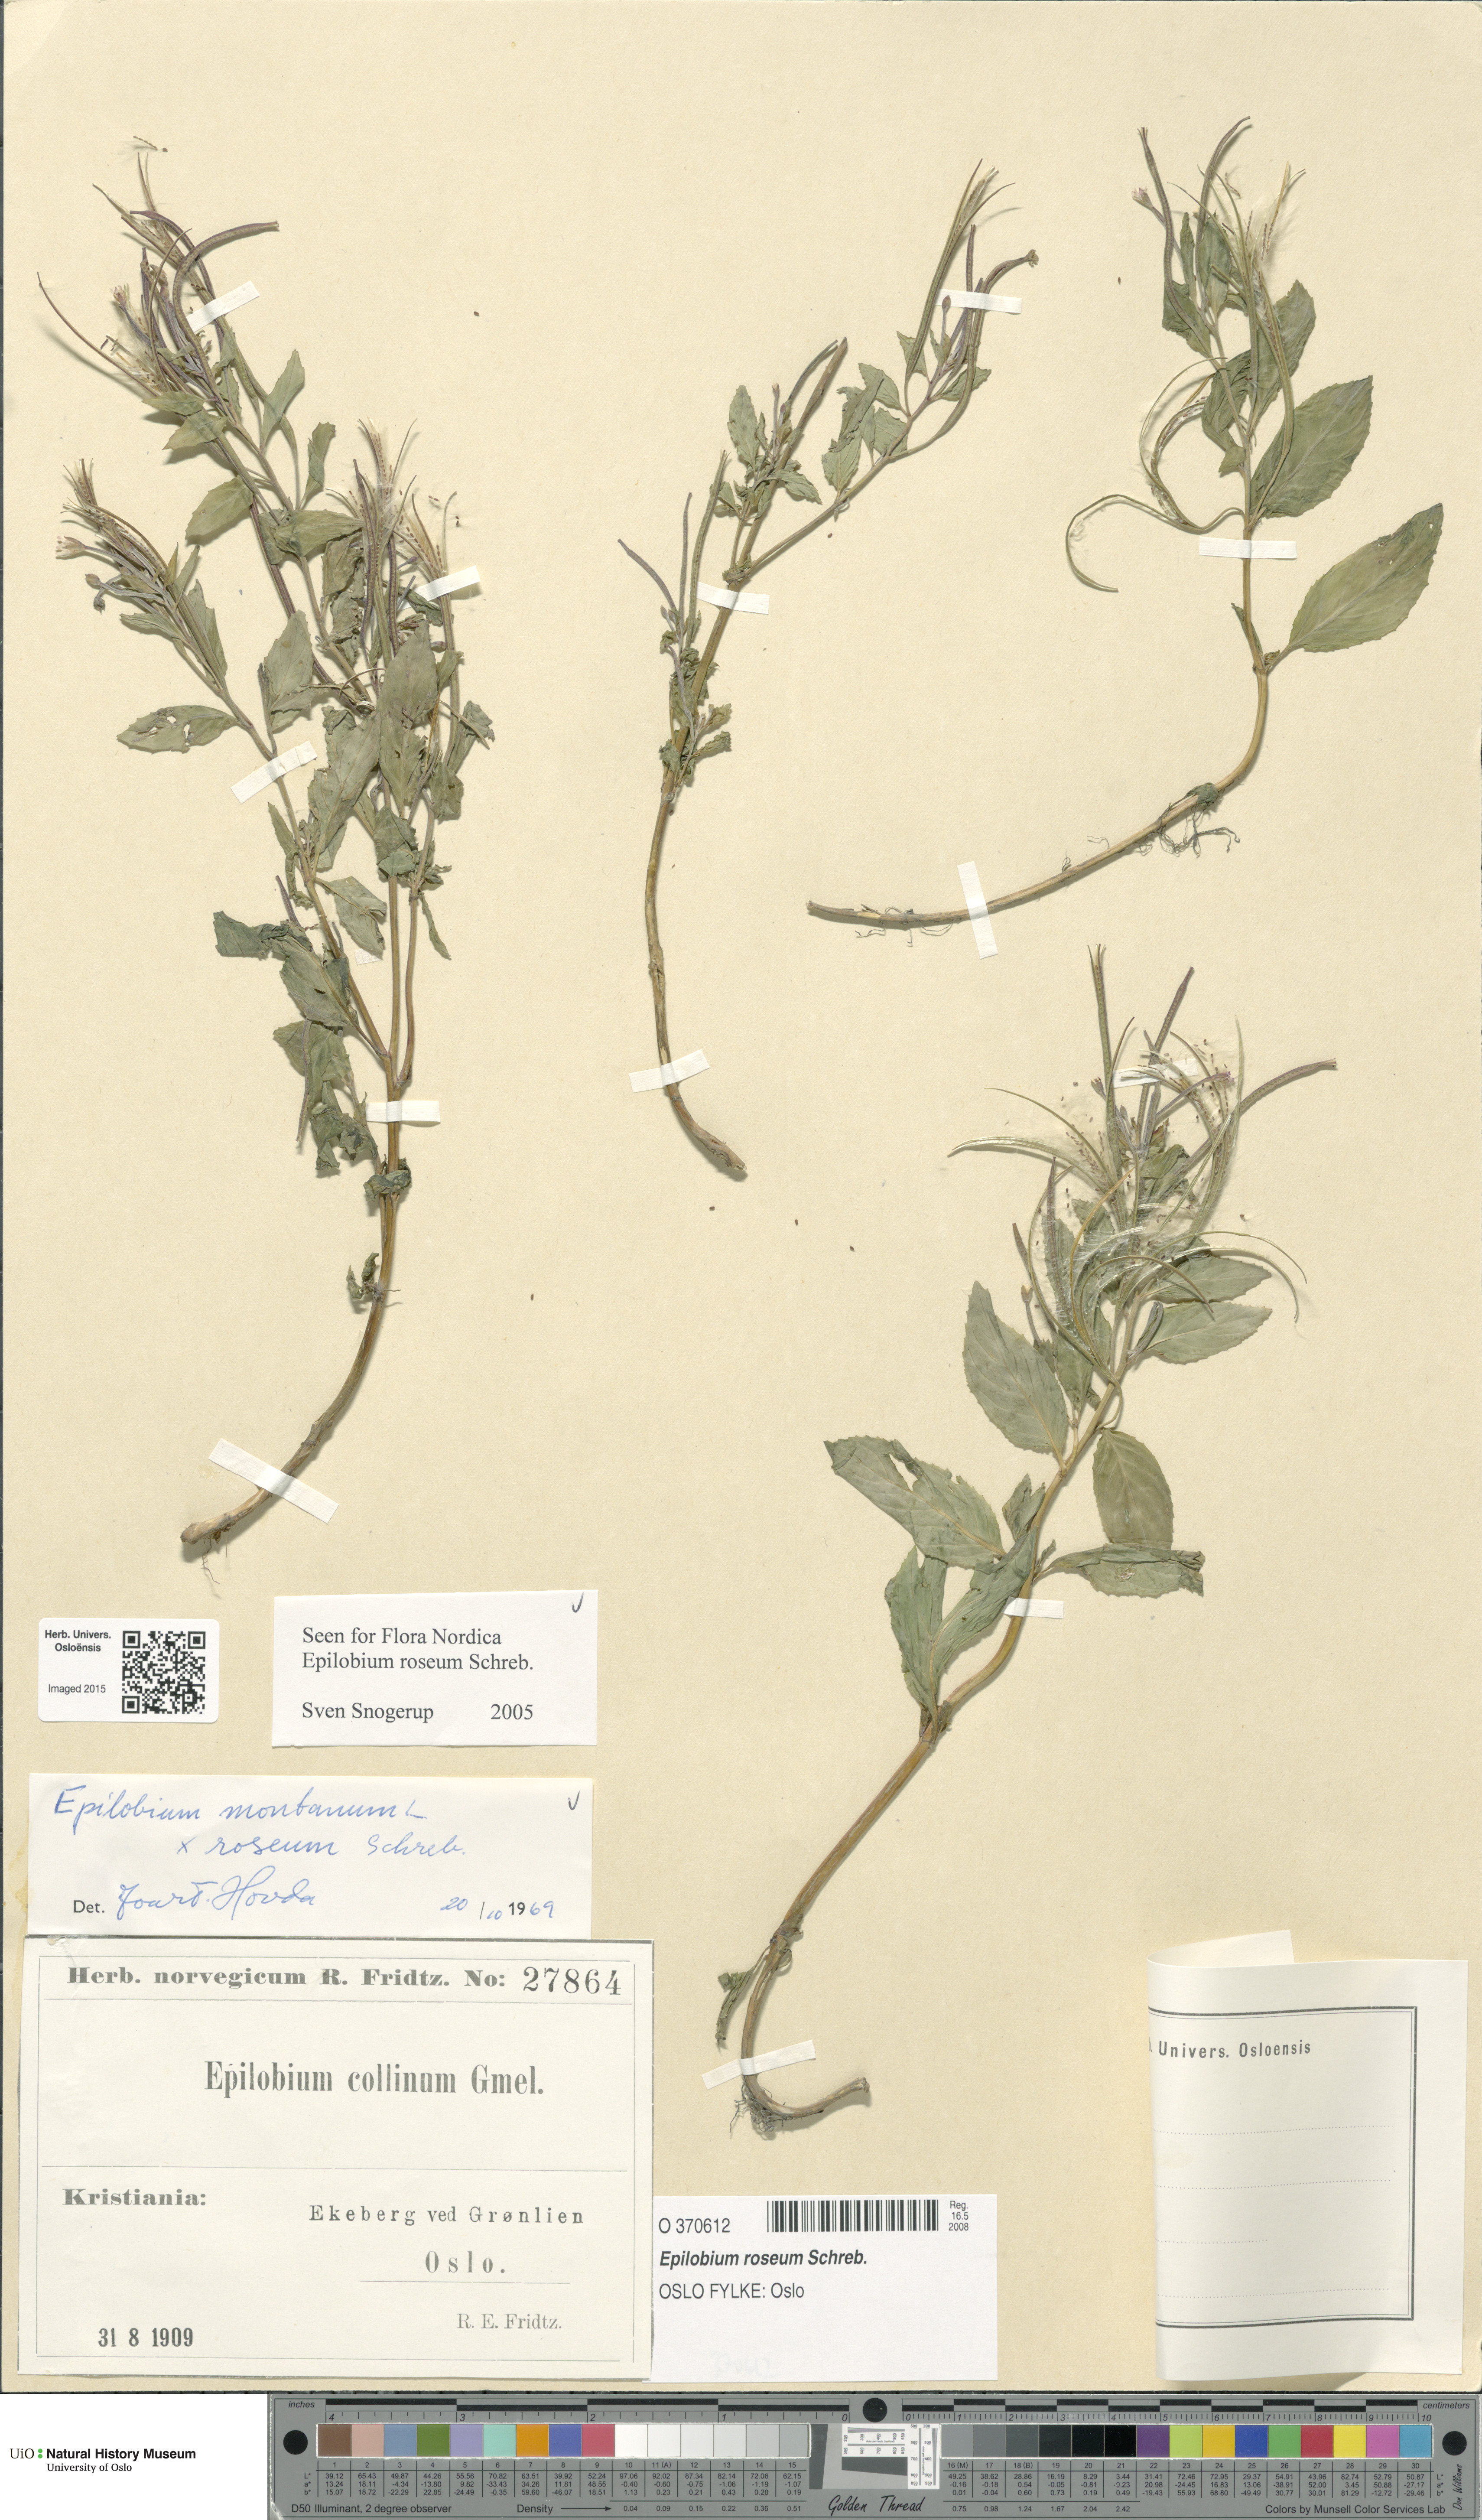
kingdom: Plantae
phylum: Tracheophyta
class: Magnoliopsida
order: Myrtales
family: Onagraceae
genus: Epilobium
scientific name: Epilobium roseum
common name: Pale willowherb
